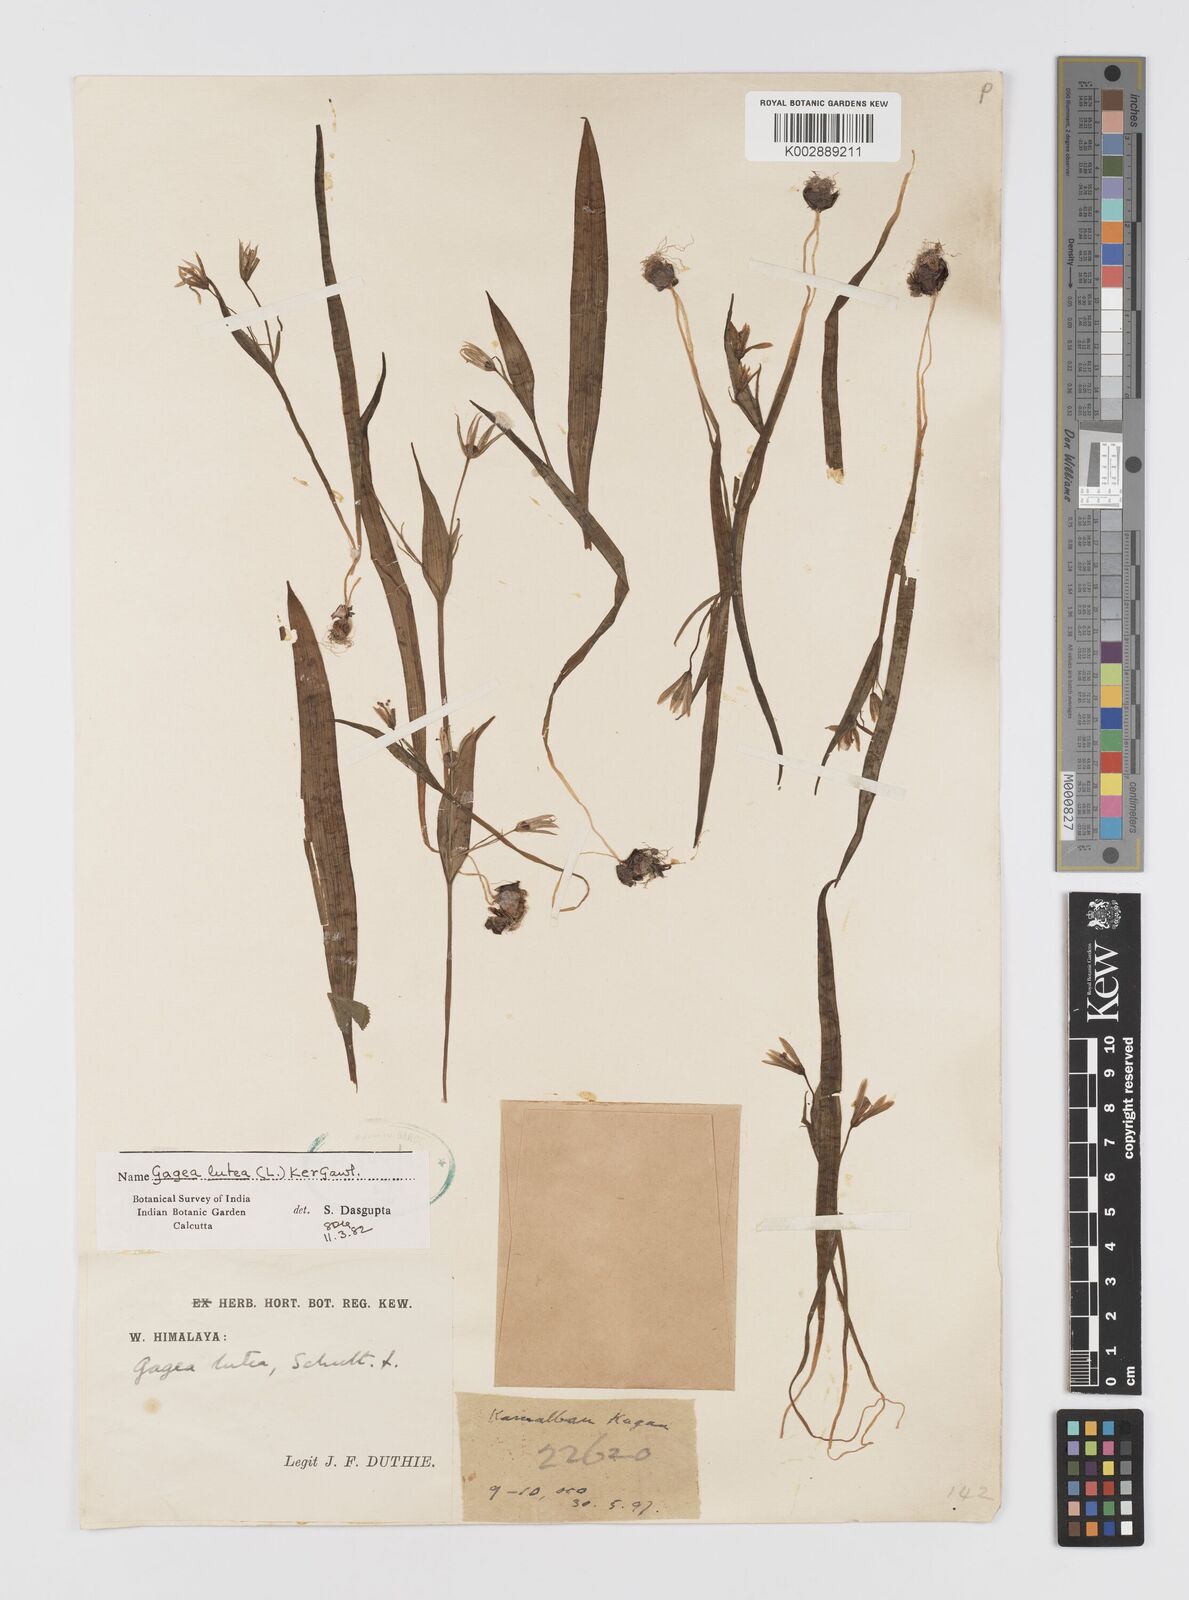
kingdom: Plantae
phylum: Tracheophyta
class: Liliopsida
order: Liliales
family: Liliaceae
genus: Gagea
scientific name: Gagea lutea
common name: Yellow star-of-bethlehem
